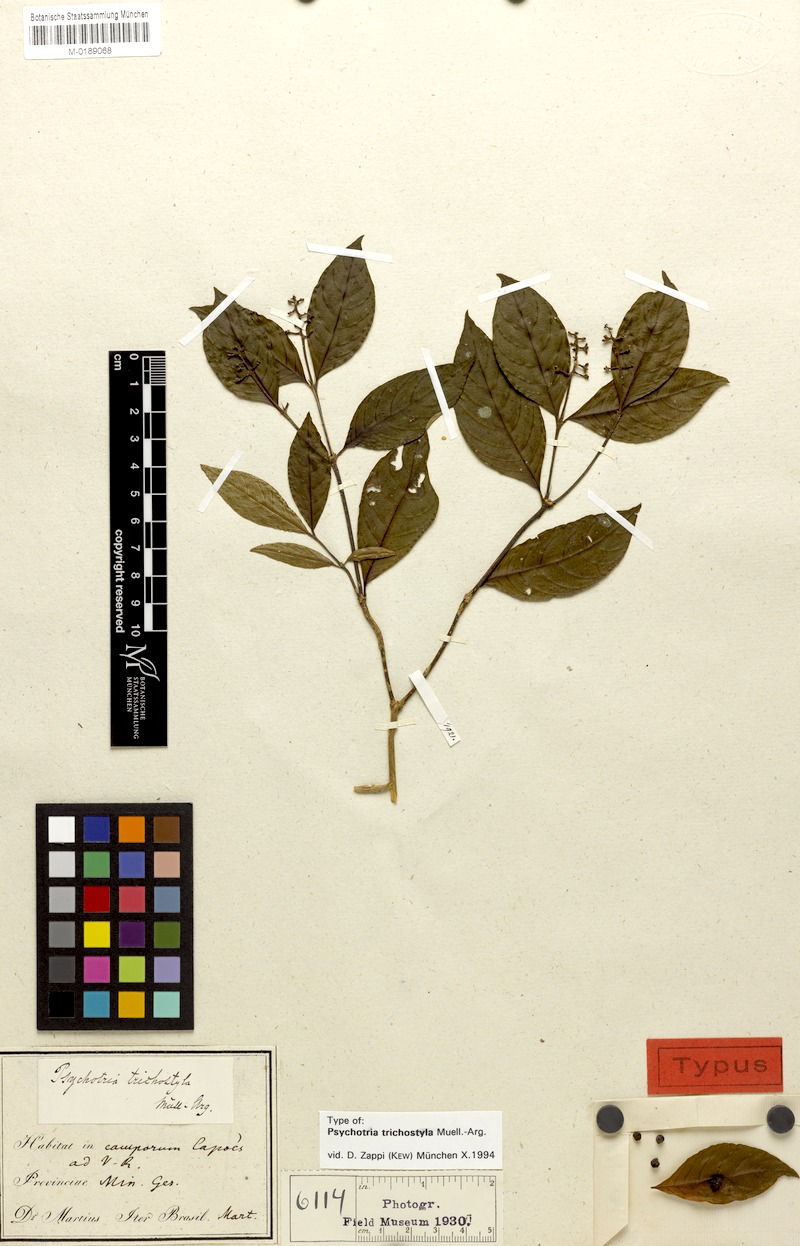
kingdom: Plantae
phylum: Tracheophyta
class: Magnoliopsida
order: Gentianales
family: Rubiaceae
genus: Palicourea
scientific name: Palicourea fissistipula
